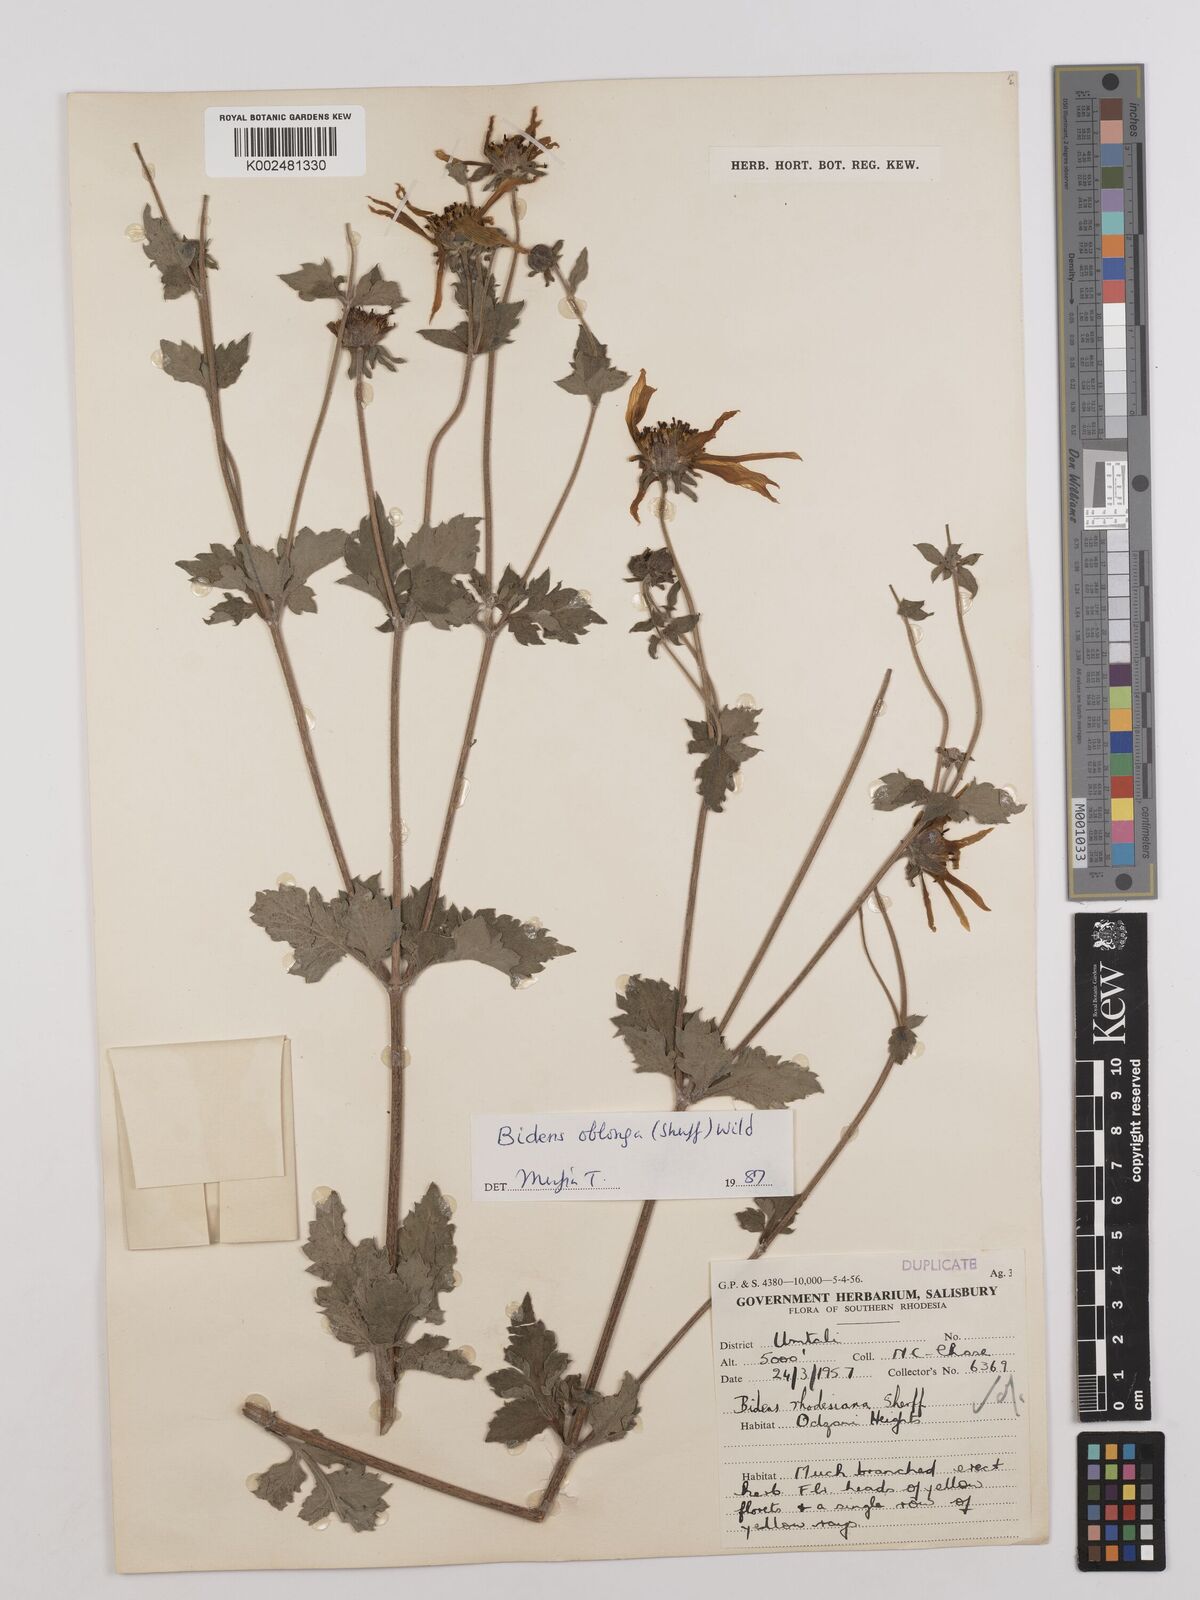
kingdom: Plantae
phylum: Tracheophyta
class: Magnoliopsida
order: Asterales
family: Asteraceae
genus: Bidens
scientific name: Bidens oblonga
